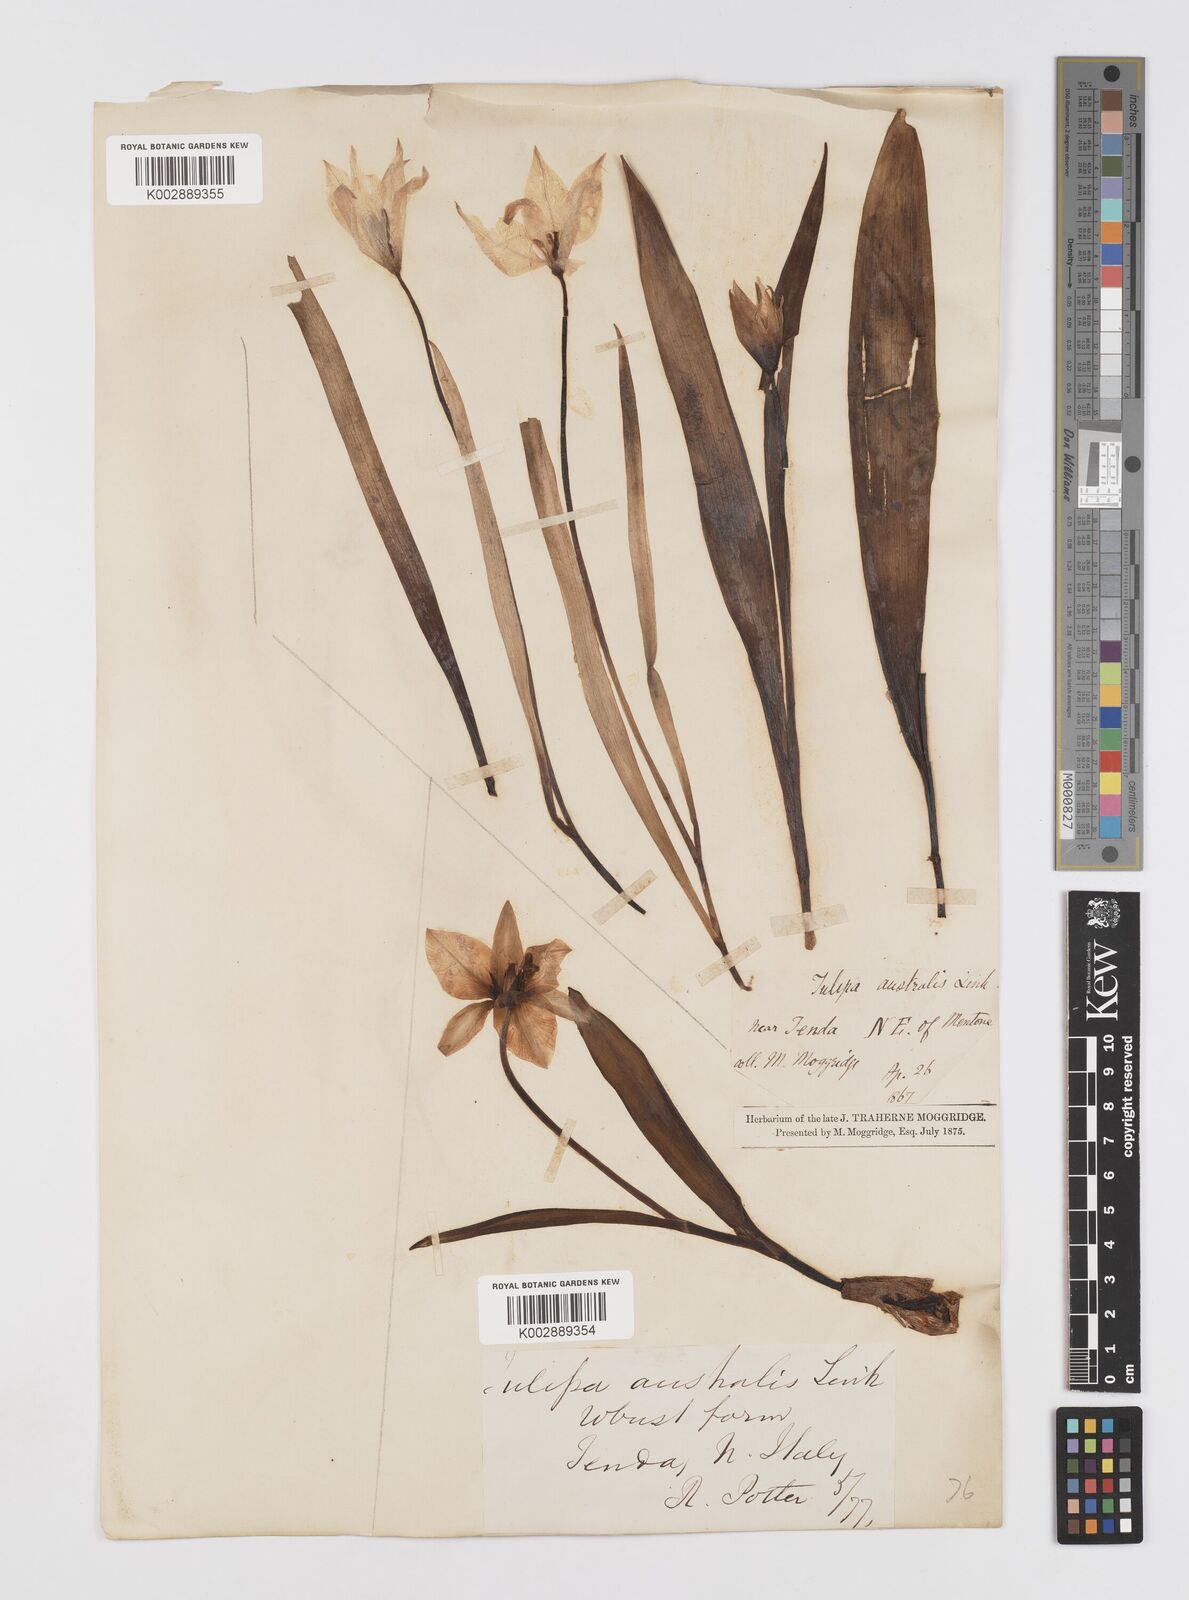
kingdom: Plantae
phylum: Tracheophyta
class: Liliopsida
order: Liliales
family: Liliaceae
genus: Tulipa
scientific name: Tulipa sylvestris
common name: Wild tulip
